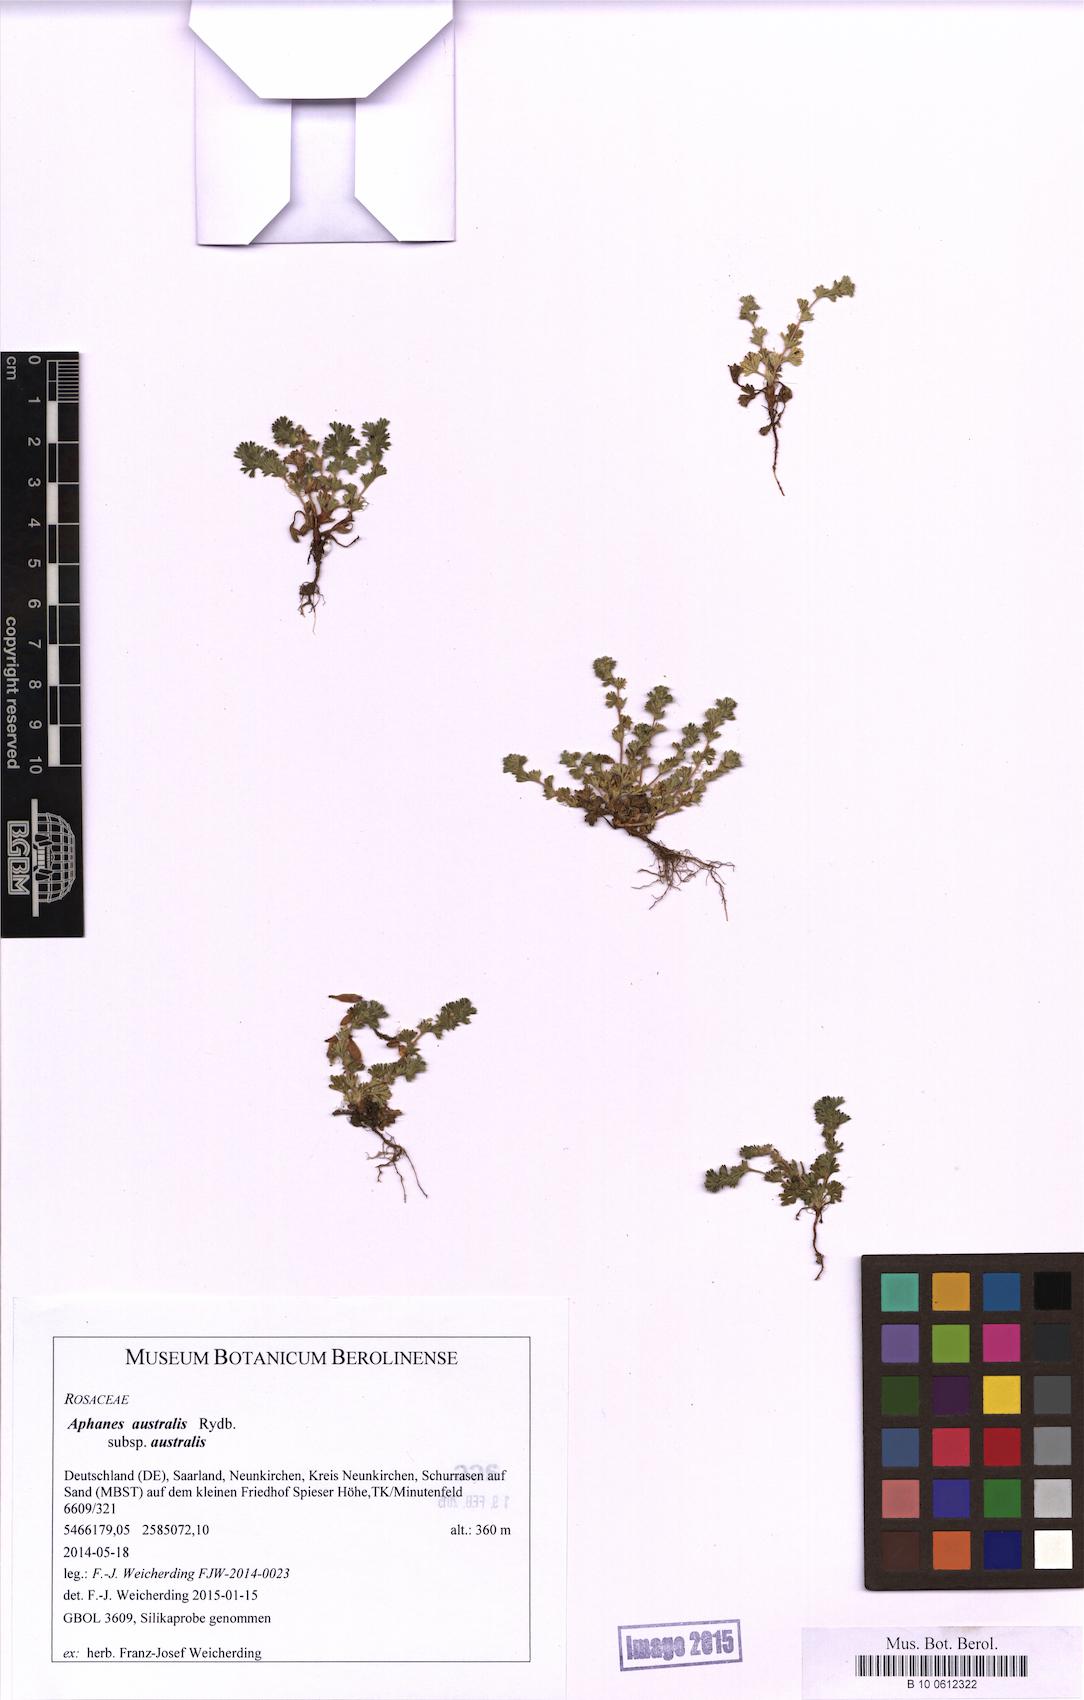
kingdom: Plantae
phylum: Tracheophyta
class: Magnoliopsida
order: Rosales
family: Rosaceae
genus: Aphanes
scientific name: Aphanes australis
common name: Slender parsley-piert
